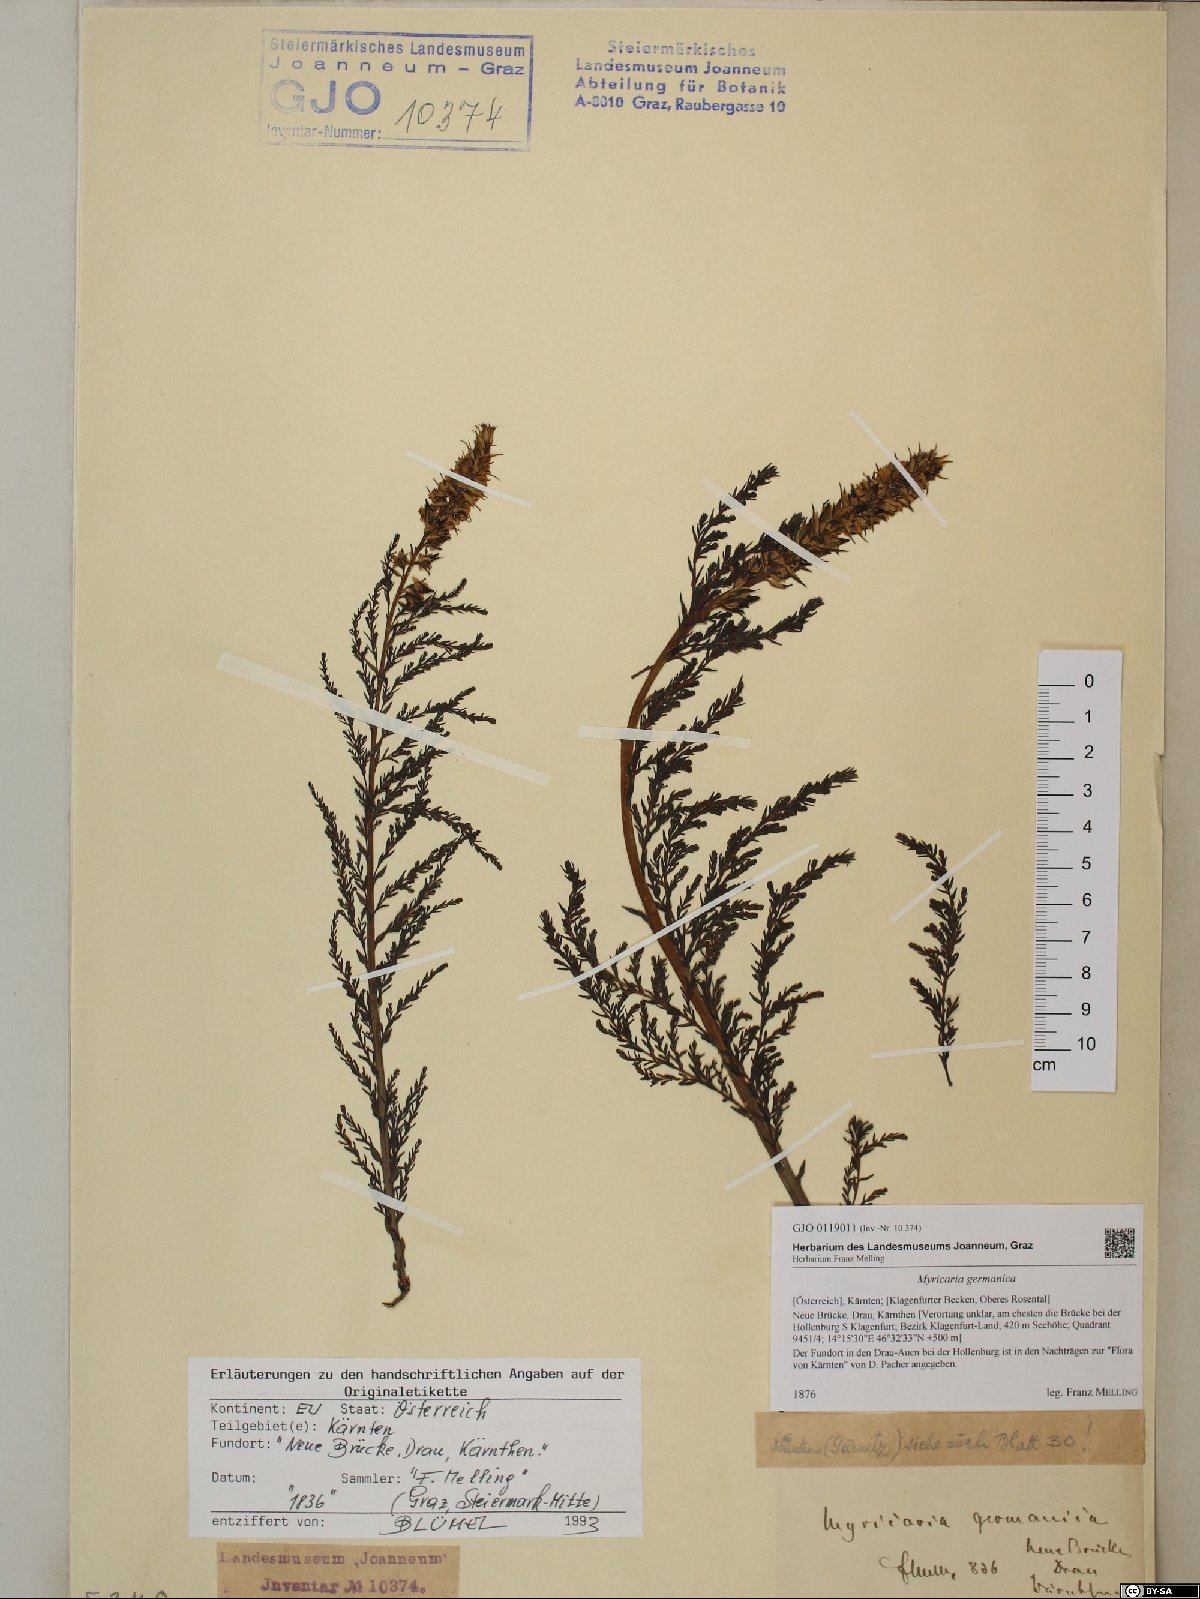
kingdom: Plantae
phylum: Tracheophyta
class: Magnoliopsida
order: Caryophyllales
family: Tamaricaceae
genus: Myricaria
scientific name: Myricaria germanica
